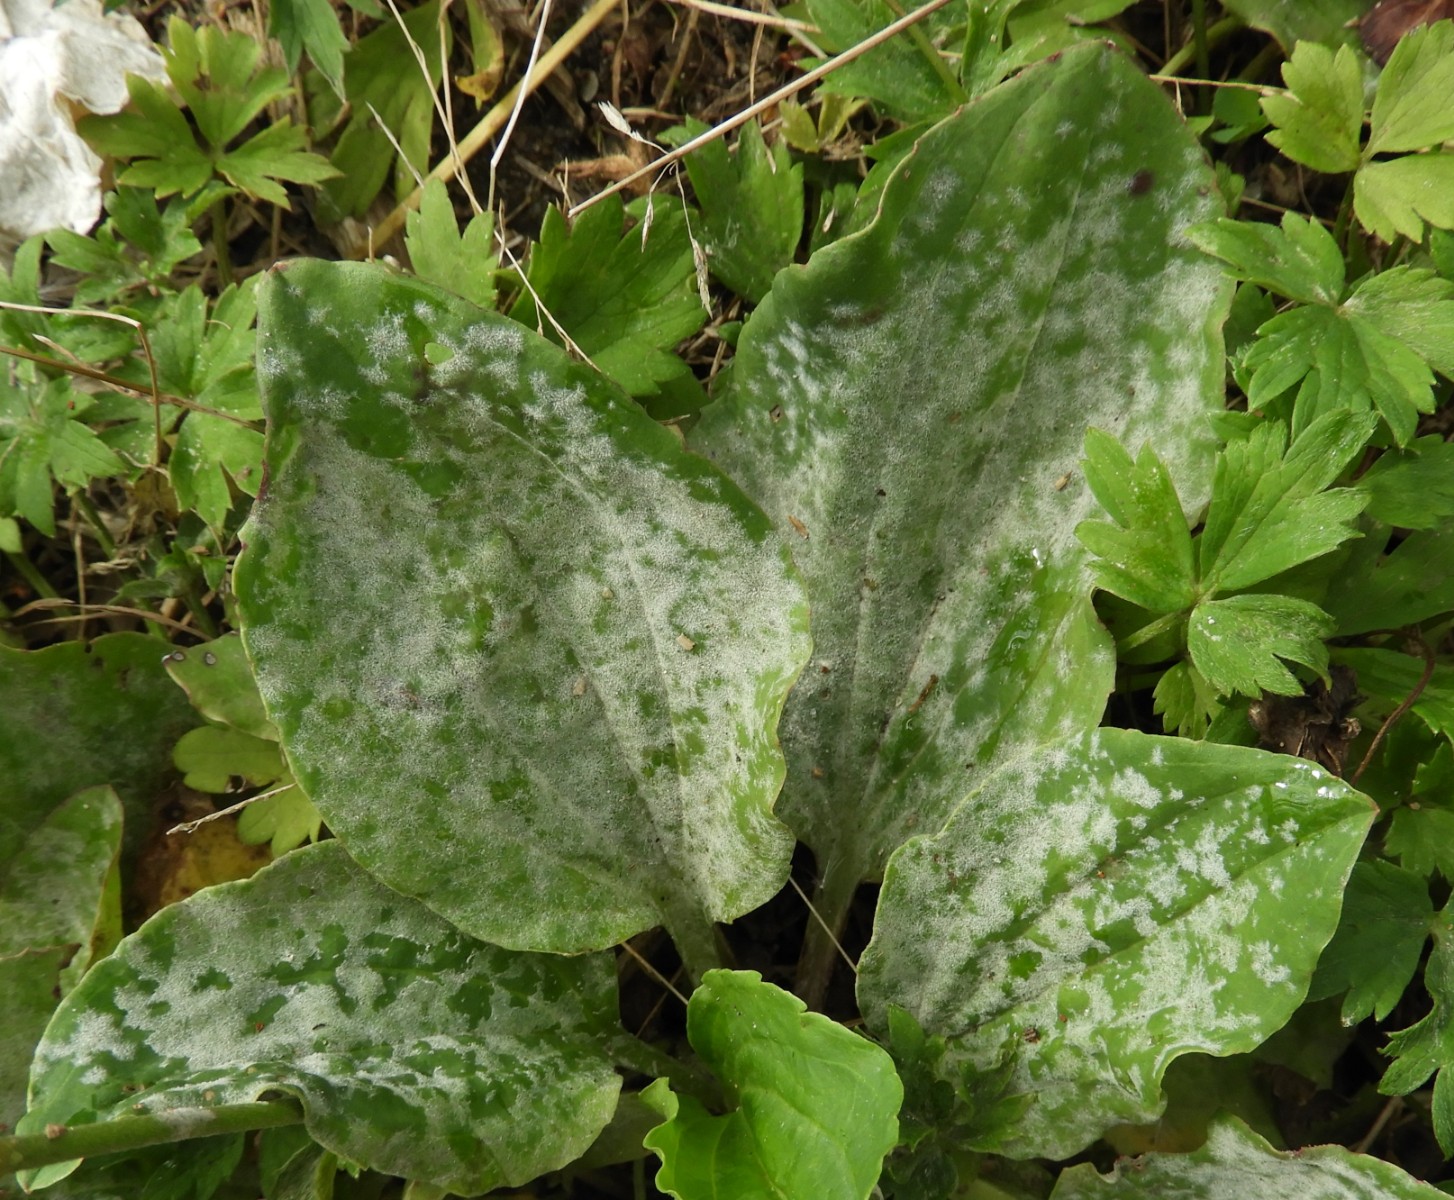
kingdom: Fungi
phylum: Ascomycota
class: Leotiomycetes
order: Helotiales
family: Erysiphaceae
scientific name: Erysiphaceae
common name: meldugfamilien
